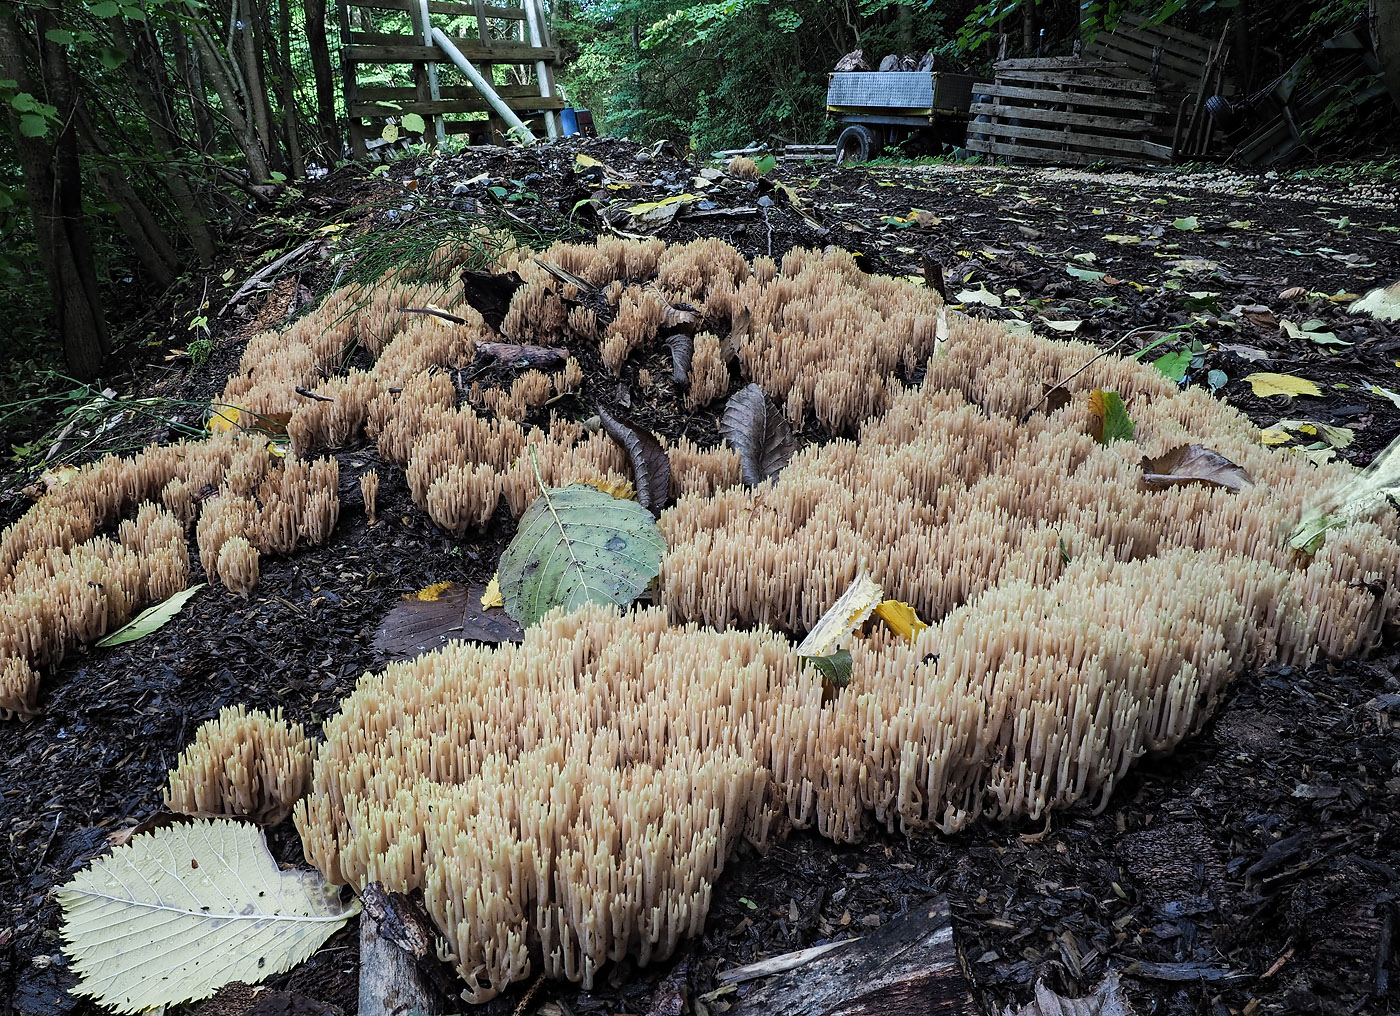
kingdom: Fungi
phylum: Basidiomycota
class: Agaricomycetes
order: Gomphales
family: Gomphaceae
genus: Ramaria
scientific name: Ramaria stricta
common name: rank koralsvamp
